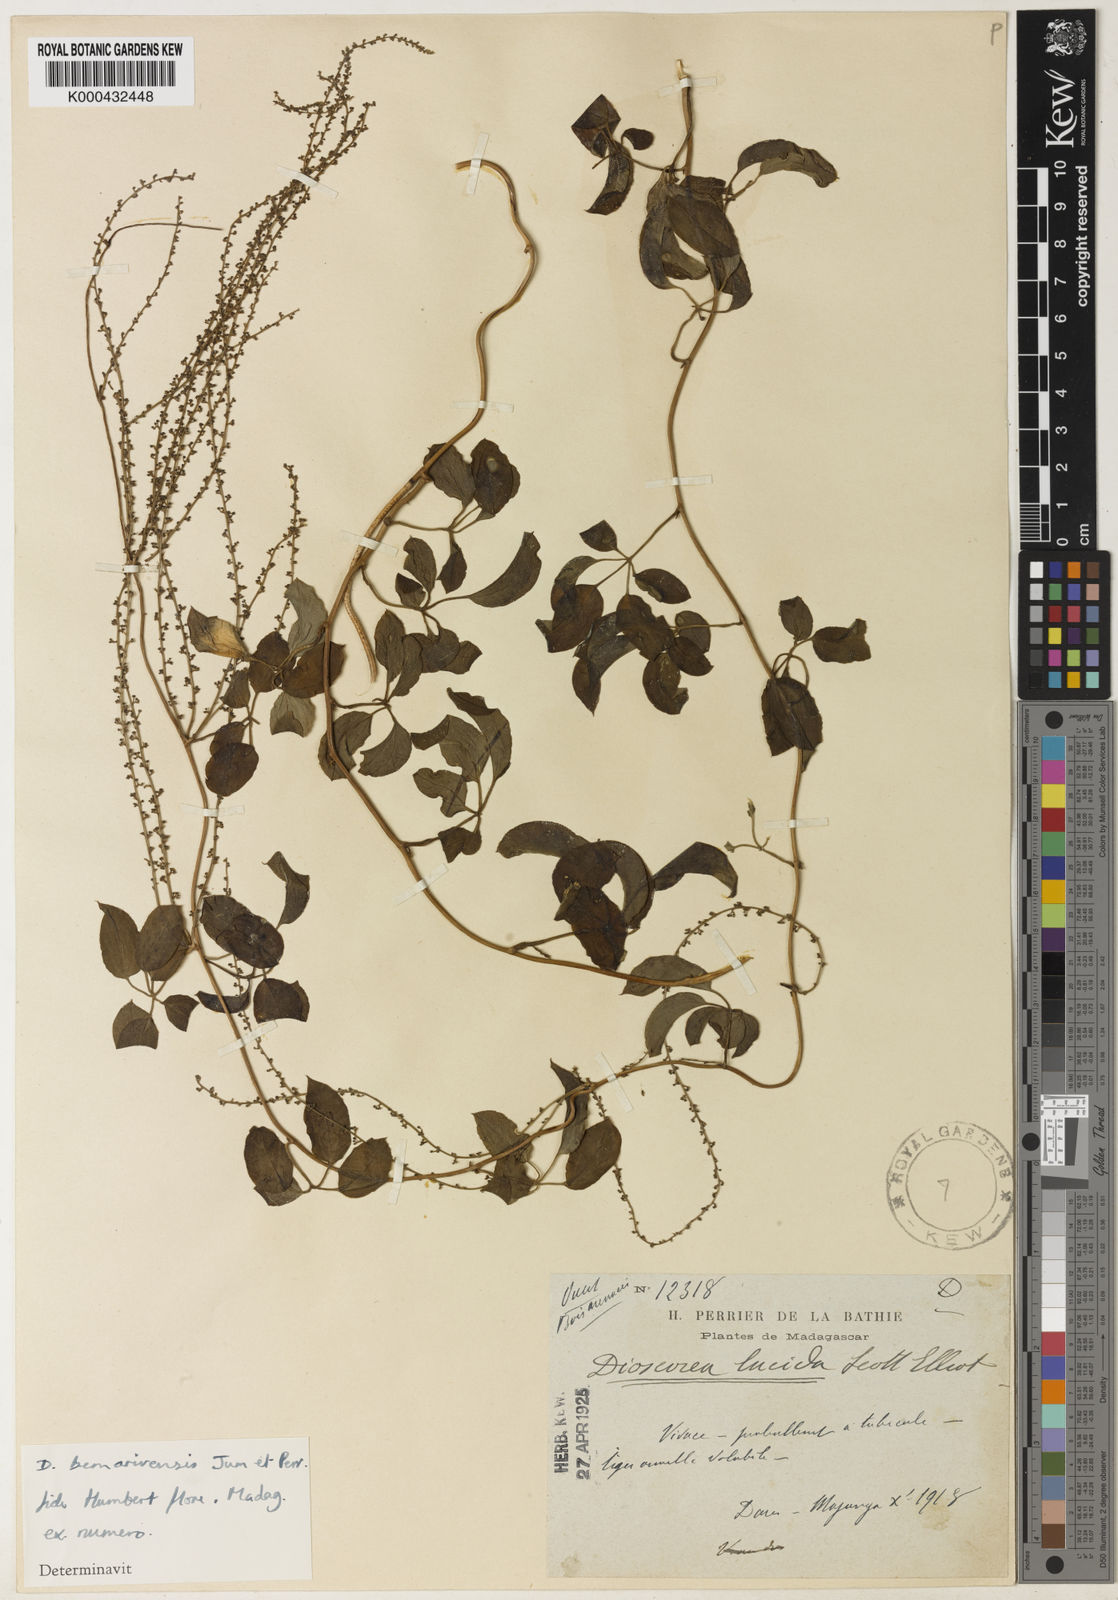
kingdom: Plantae
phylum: Tracheophyta
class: Liliopsida
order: Dioscoreales
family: Dioscoreaceae
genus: Dioscorea
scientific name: Dioscorea bemarivensis
